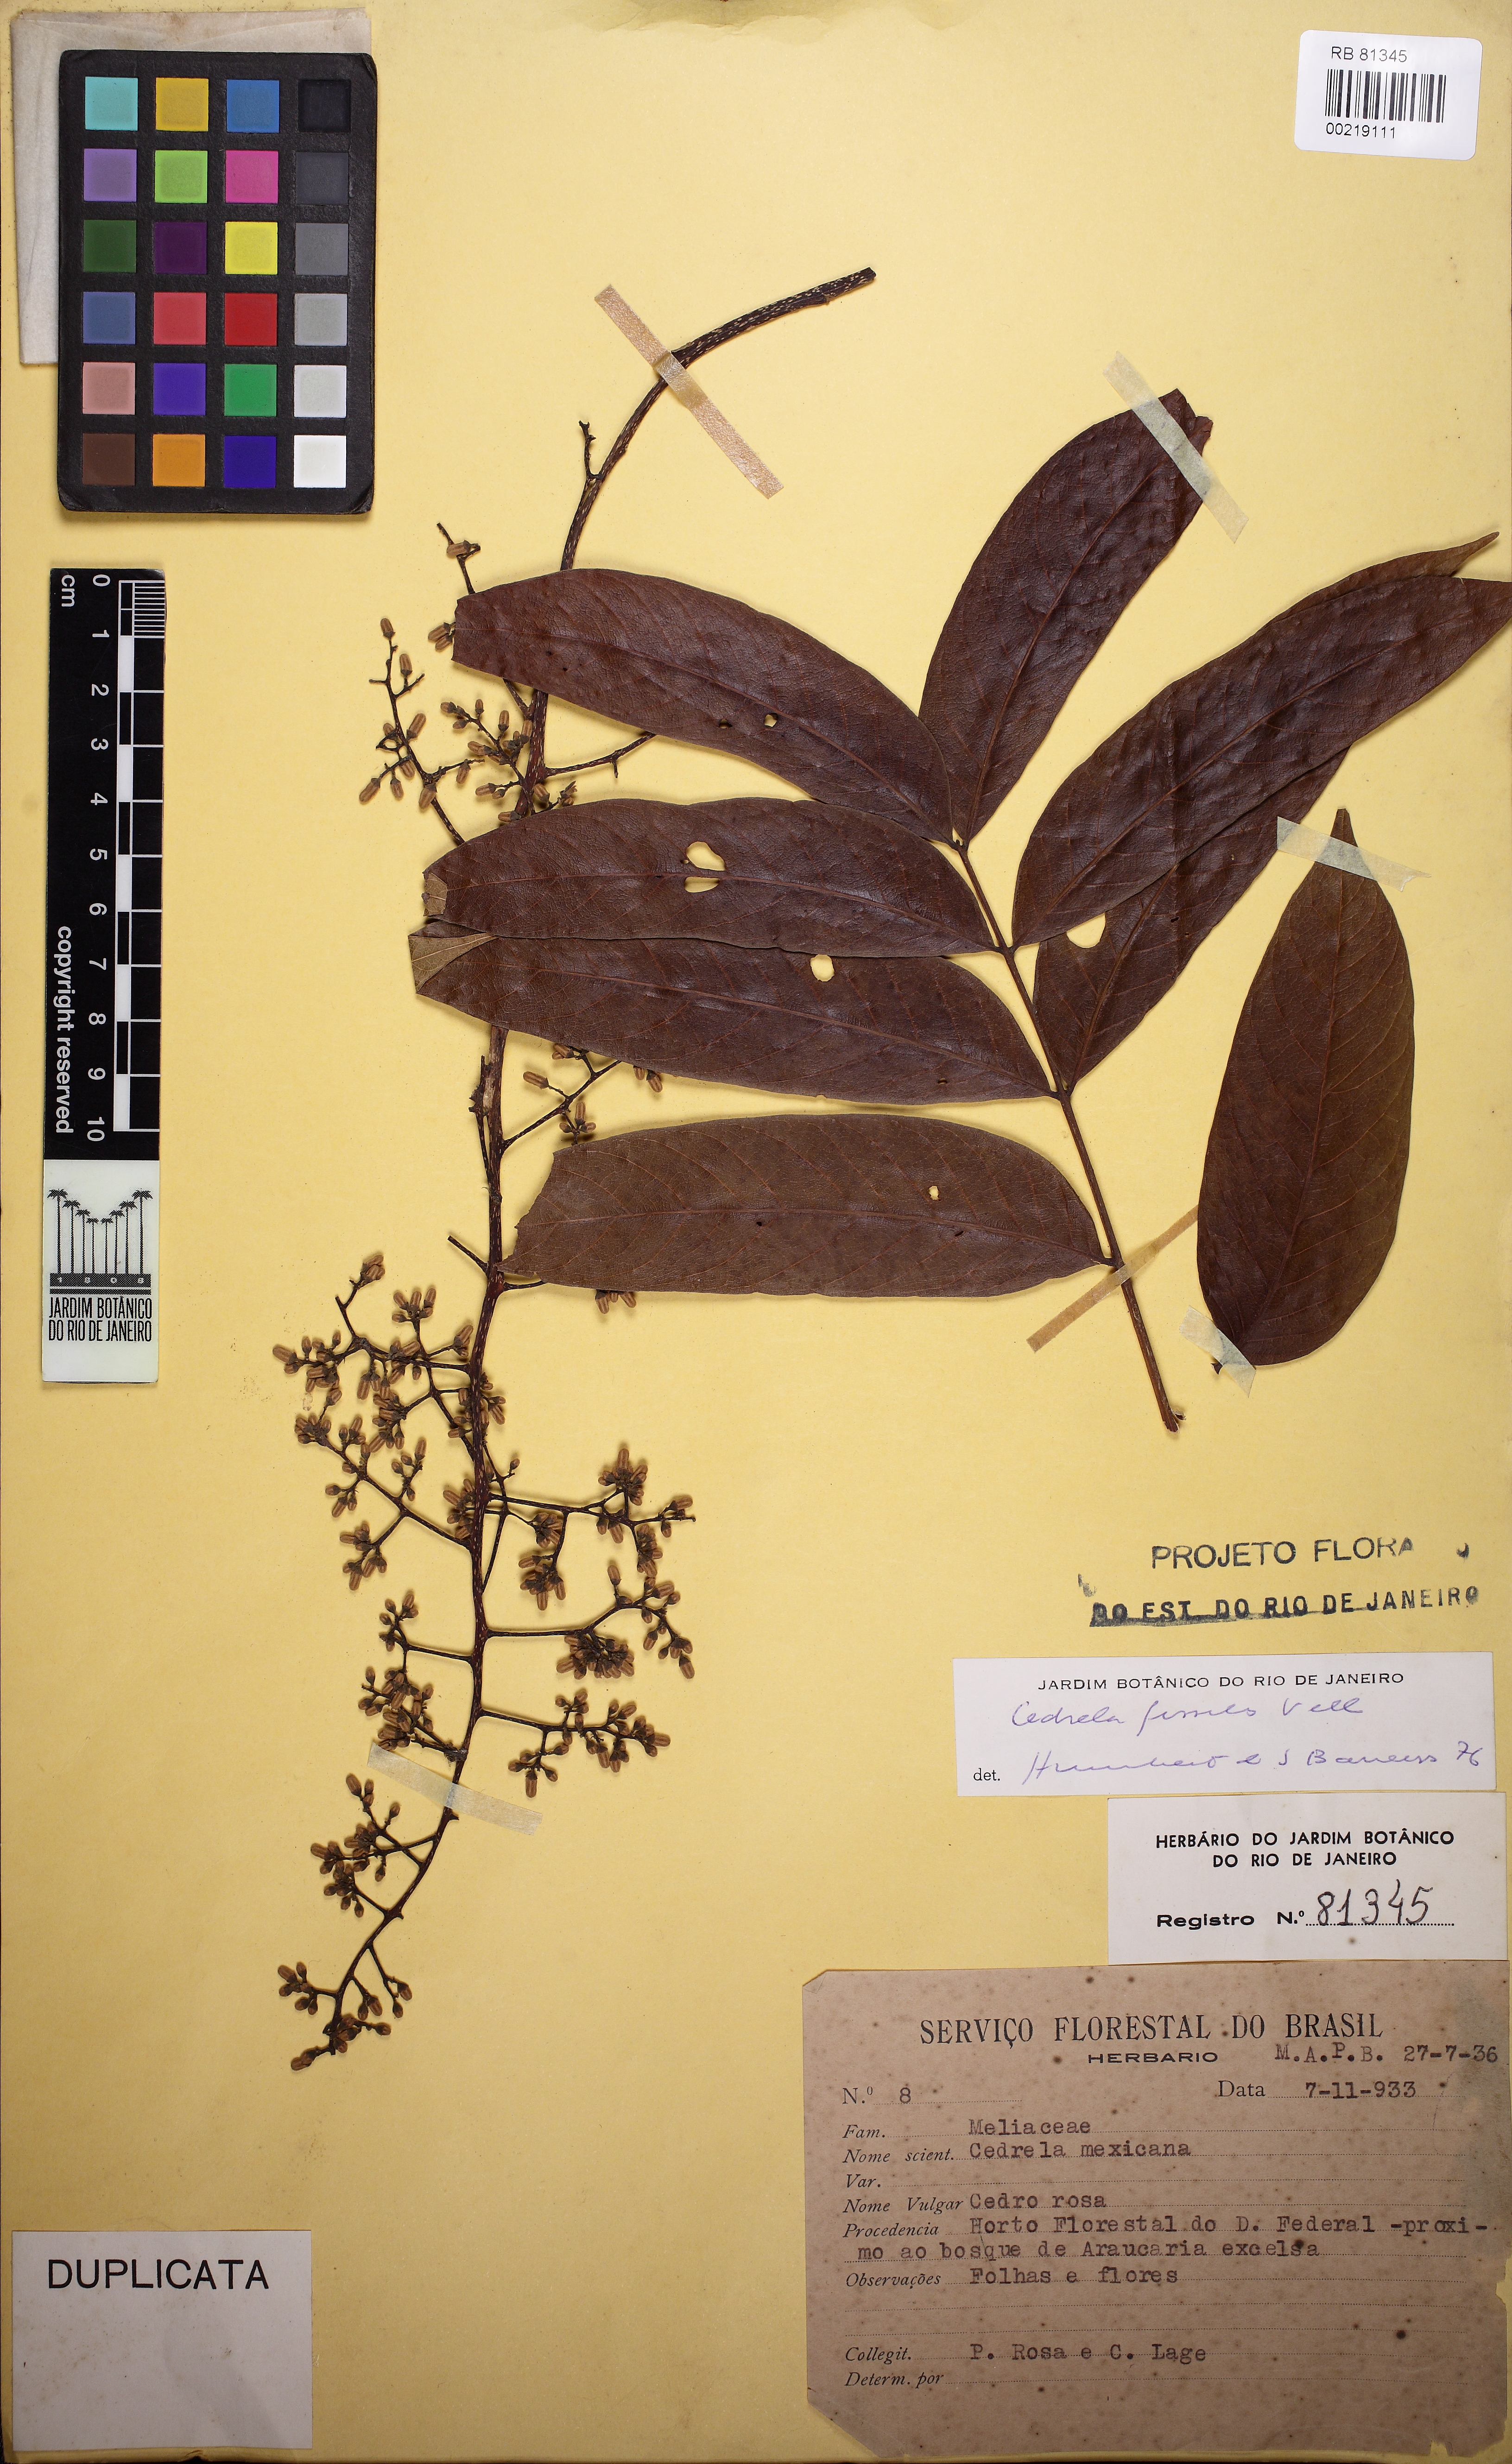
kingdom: Plantae
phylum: Tracheophyta
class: Magnoliopsida
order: Sapindales
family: Meliaceae
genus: Cedrela
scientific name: Cedrela odorata
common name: Red cedar
